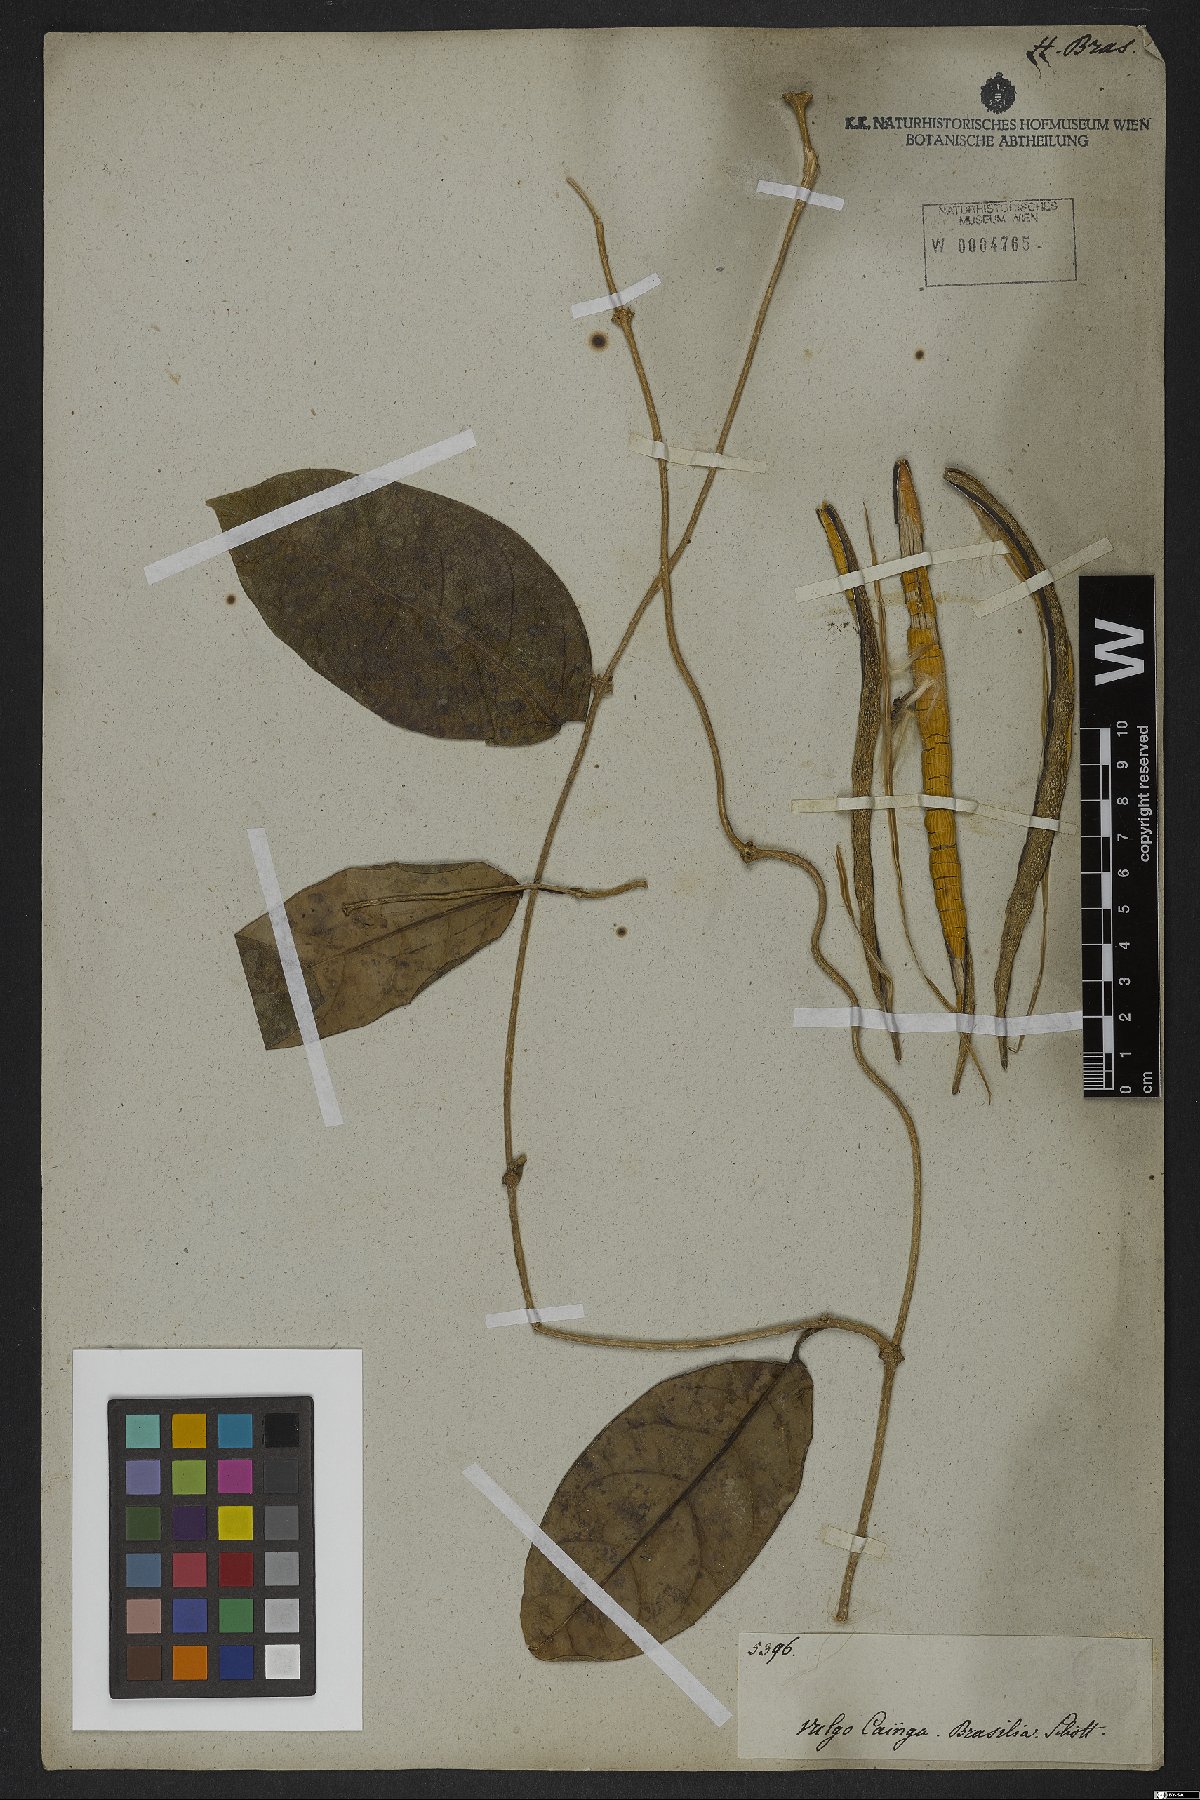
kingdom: Plantae
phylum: Tracheophyta
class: Magnoliopsida
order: Gentianales
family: Apocynaceae
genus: Prestonia
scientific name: Prestonia
